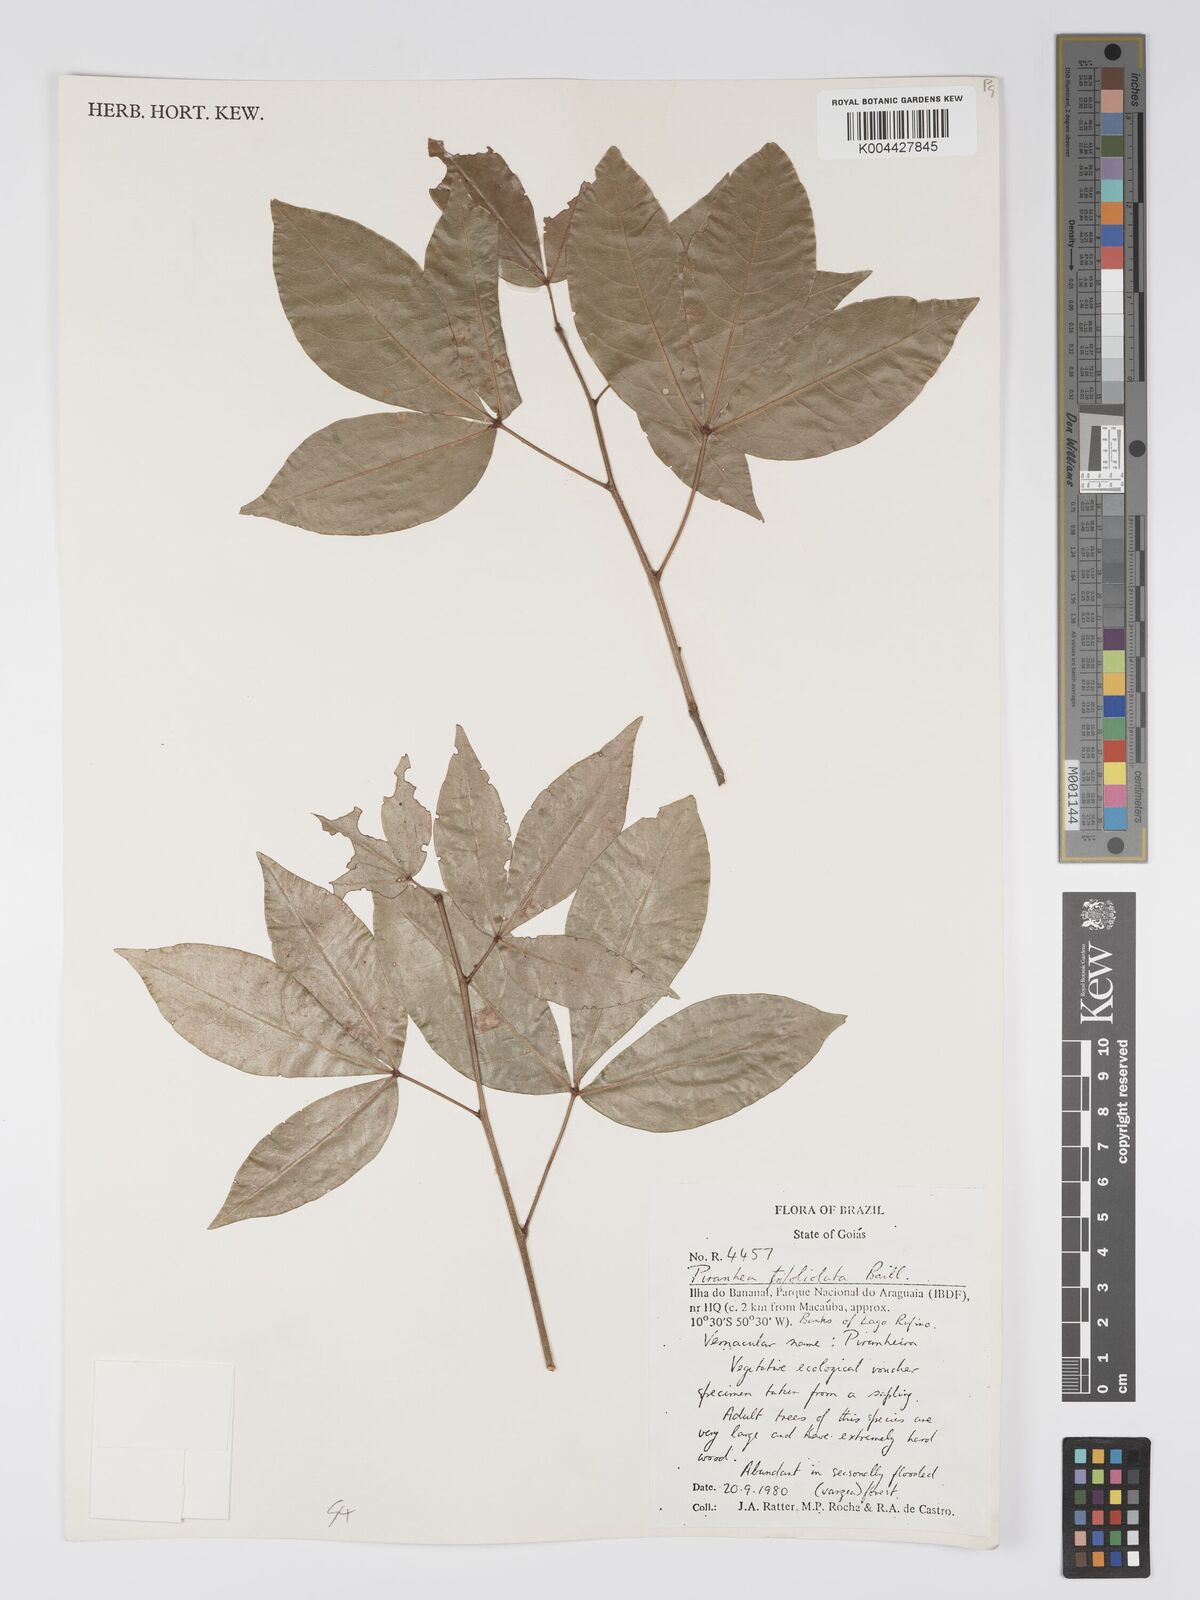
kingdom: Plantae
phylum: Tracheophyta
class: Magnoliopsida
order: Malpighiales
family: Picrodendraceae
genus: Piranhea
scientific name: Piranhea trifoliolata
